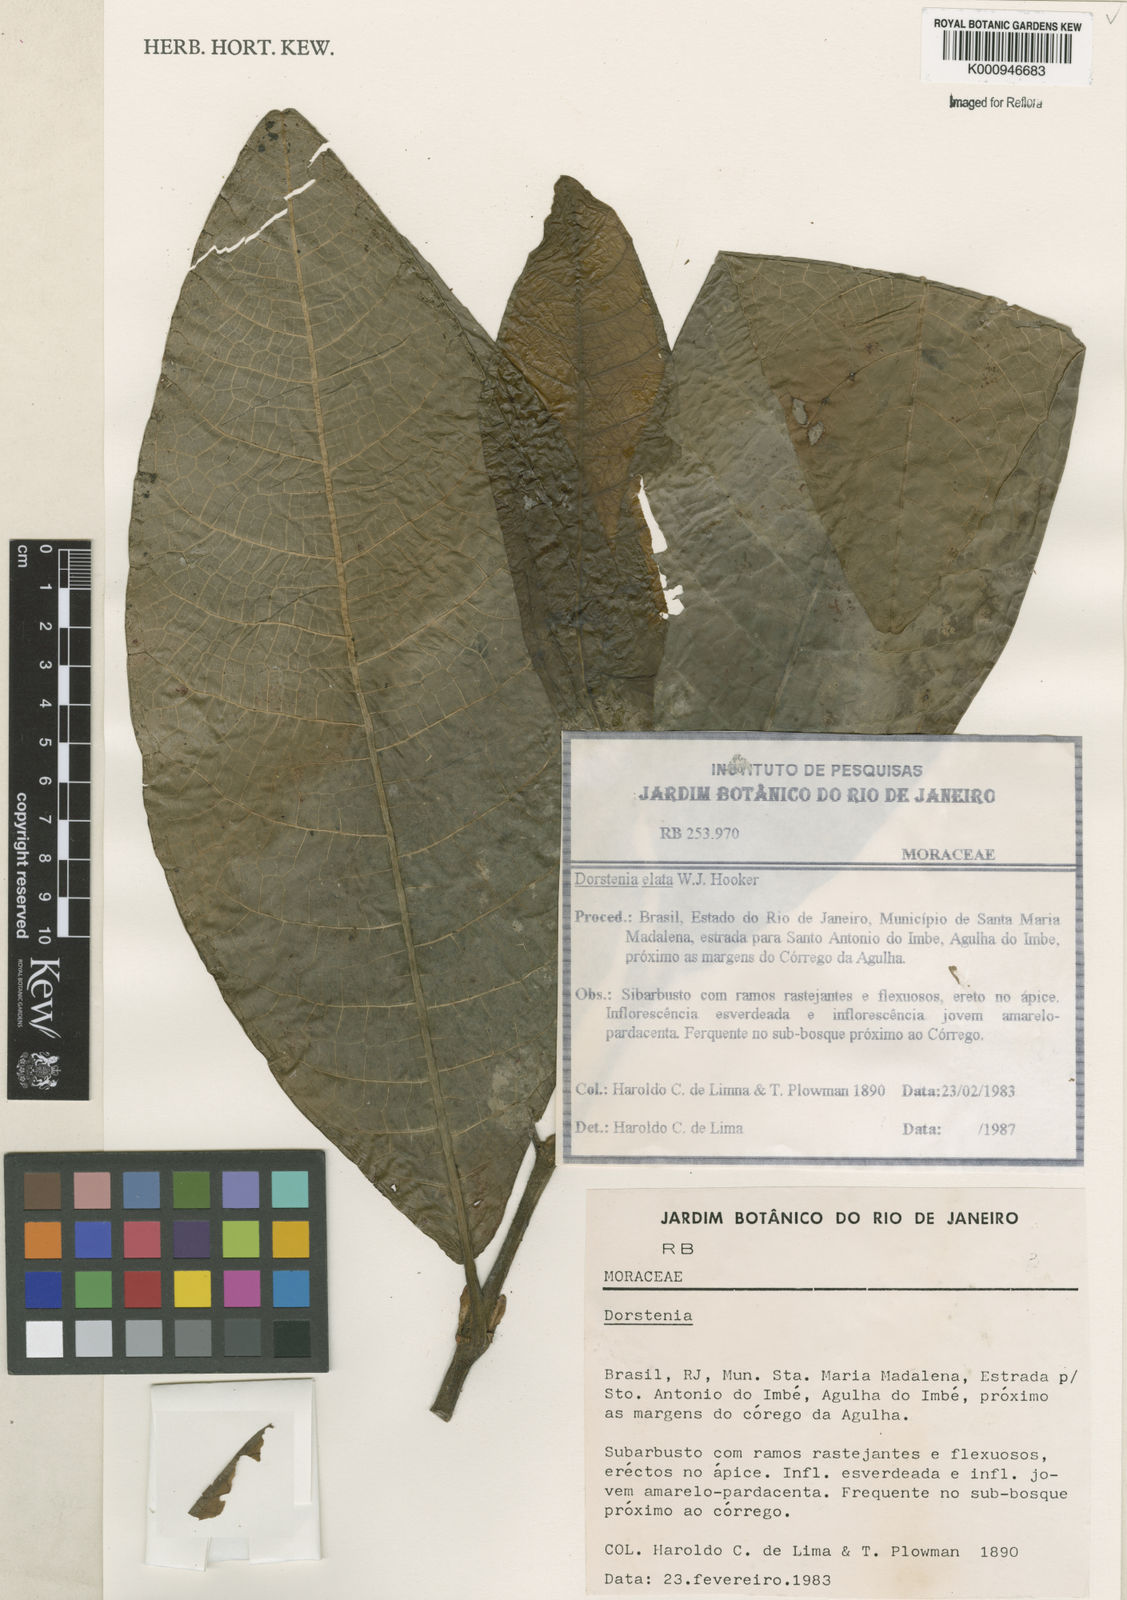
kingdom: Plantae
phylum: Tracheophyta
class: Magnoliopsida
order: Rosales
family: Moraceae
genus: Dorstenia
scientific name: Dorstenia
